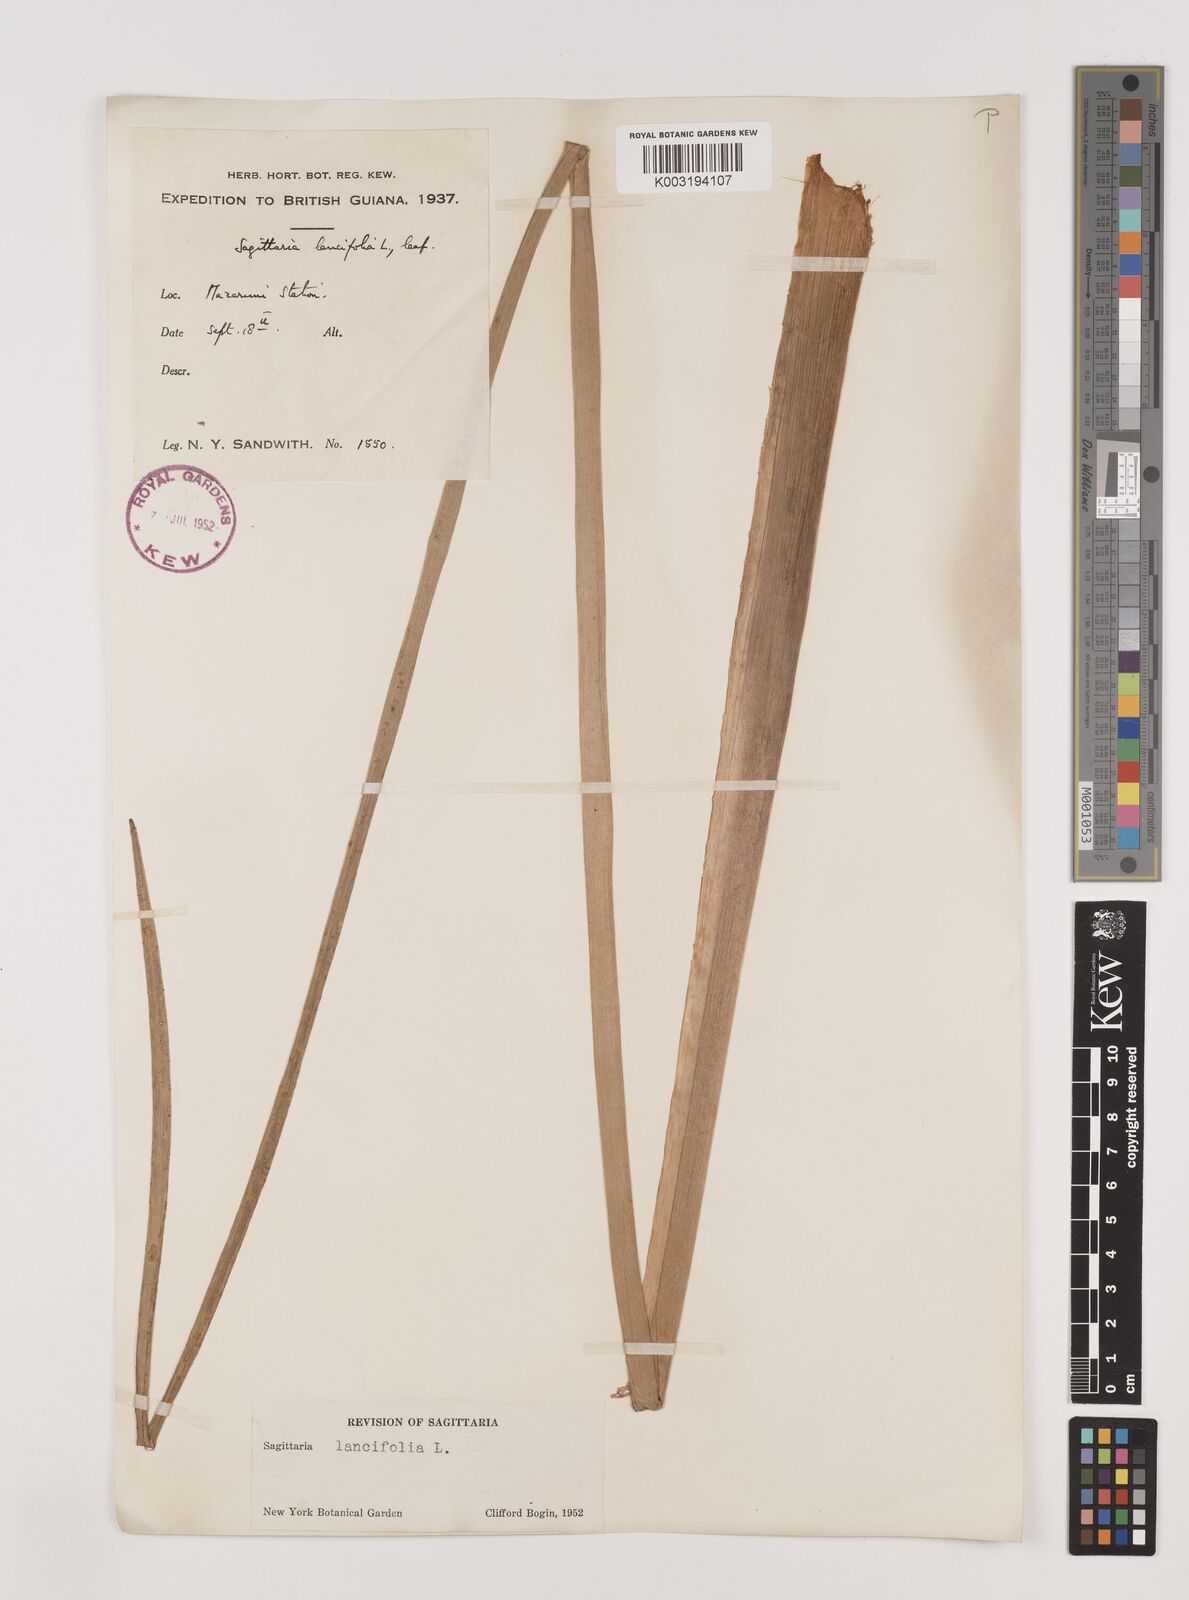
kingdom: Plantae
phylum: Tracheophyta
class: Liliopsida
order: Alismatales
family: Alismataceae
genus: Sagittaria
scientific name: Sagittaria lancifolia
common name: Lance-leaf arrowhead
